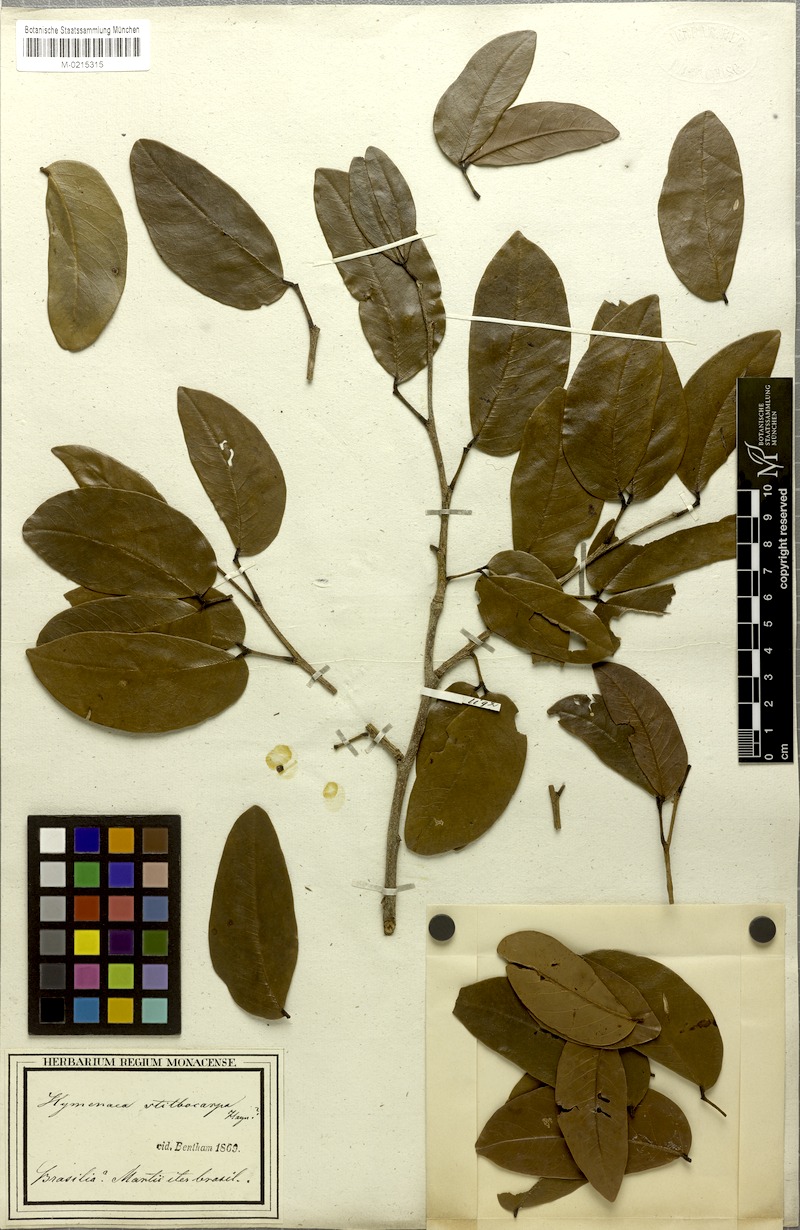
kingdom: Plantae
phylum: Tracheophyta
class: Magnoliopsida
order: Fabales
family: Fabaceae
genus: Hymenaea
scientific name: Hymenaea courbaril
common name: Brazilian copal
